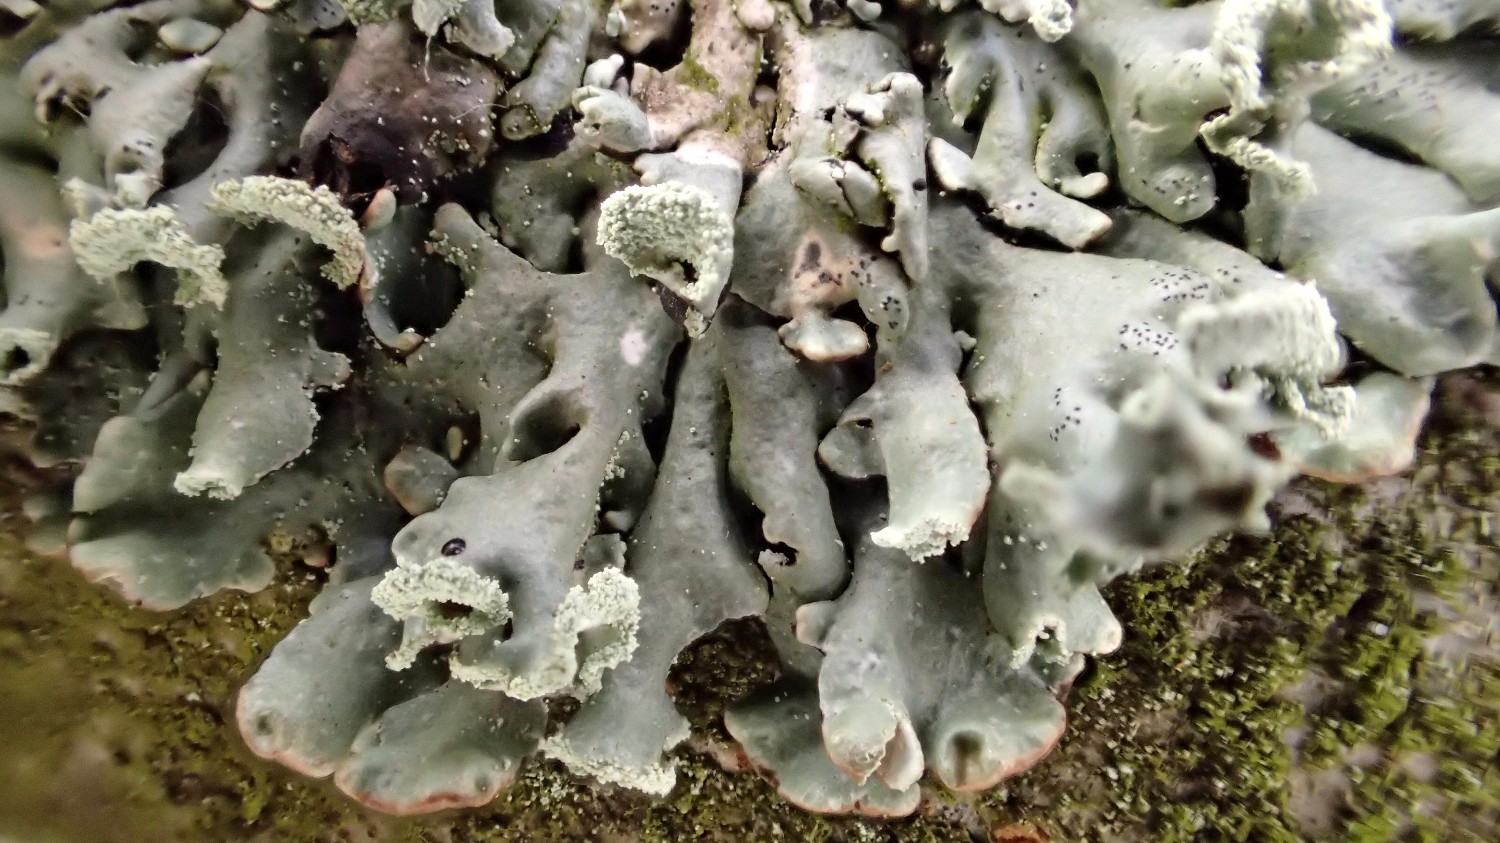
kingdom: Fungi
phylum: Ascomycota
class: Lecanoromycetes
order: Lecanorales
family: Parmeliaceae
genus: Hypogymnia
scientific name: Hypogymnia physodes
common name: almindelig kvistlav
